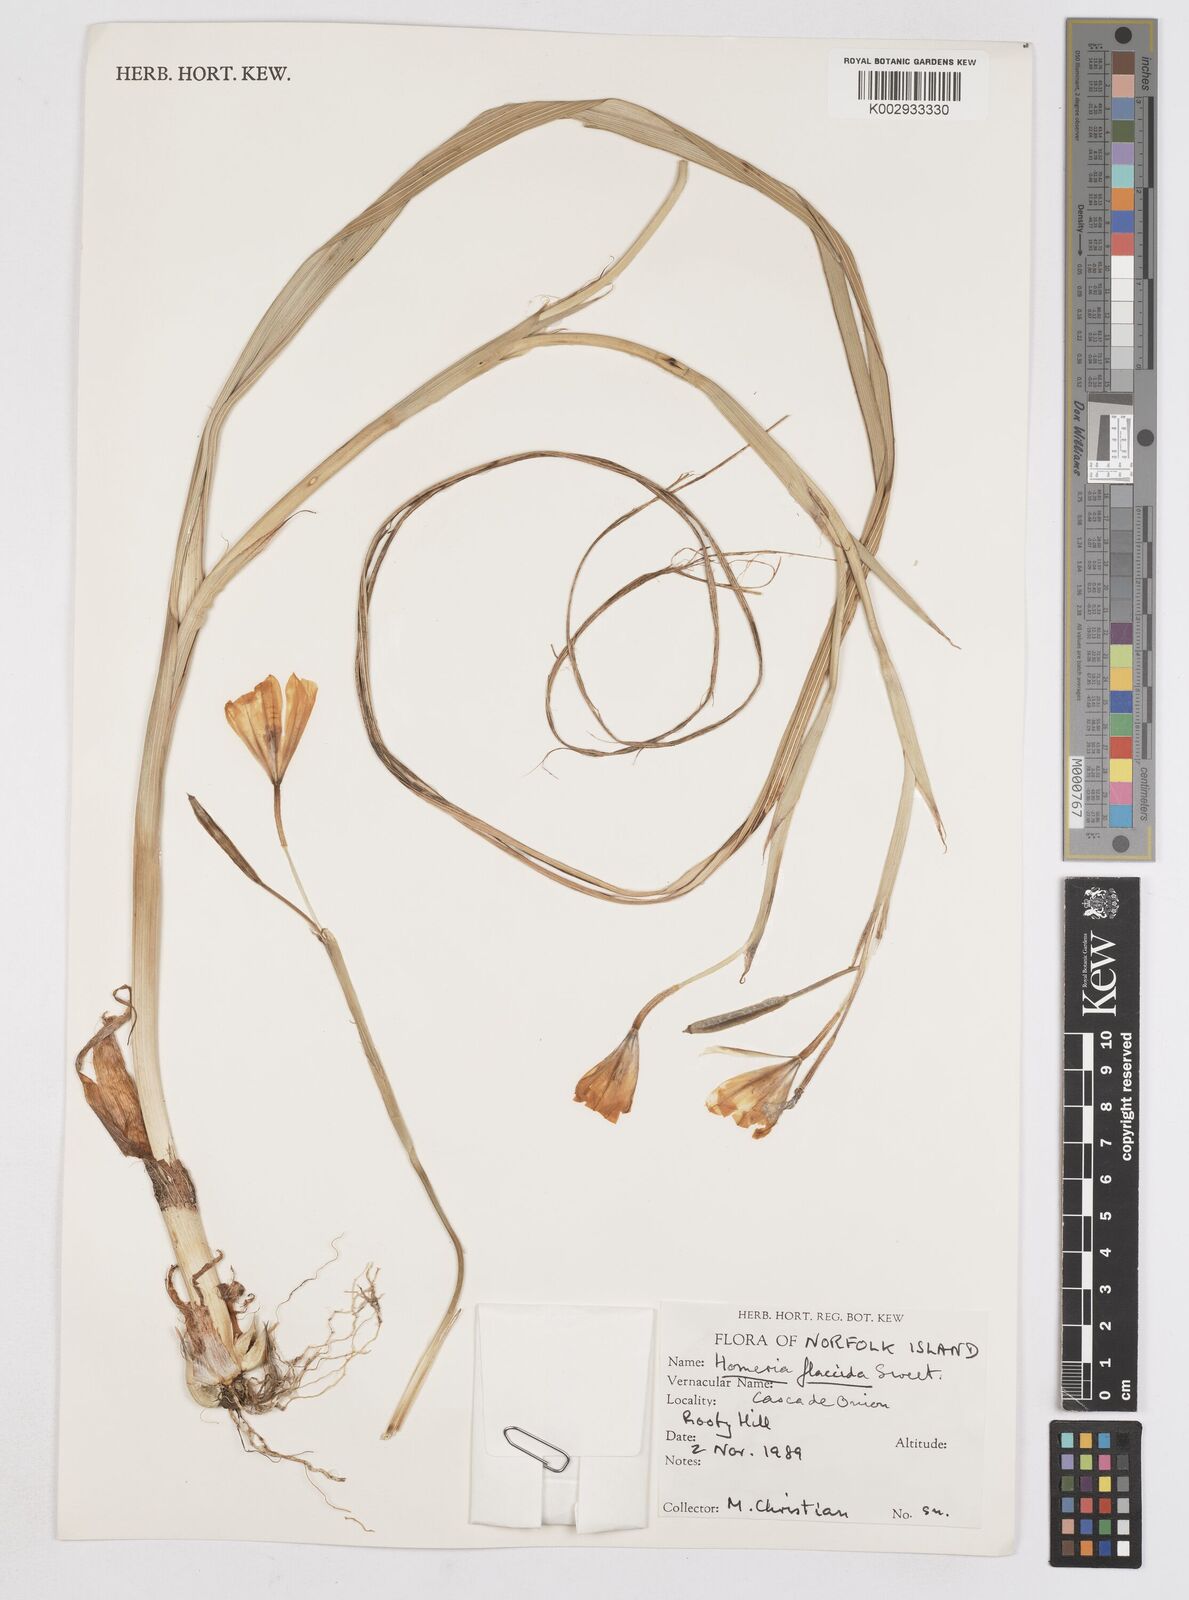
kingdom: Plantae
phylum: Tracheophyta
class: Liliopsida
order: Asparagales
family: Iridaceae
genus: Moraea
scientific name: Moraea flaccida
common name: One-leaf cape-tulip
